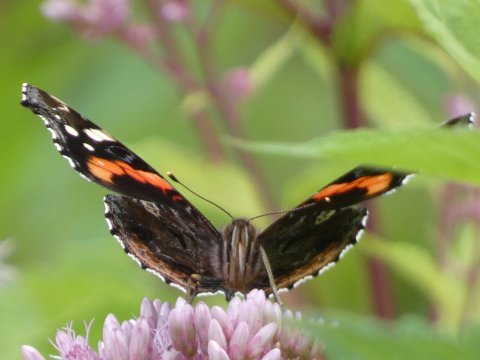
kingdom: Animalia
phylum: Arthropoda
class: Insecta
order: Lepidoptera
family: Nymphalidae
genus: Vanessa
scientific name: Vanessa atalanta
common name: Red Admiral
